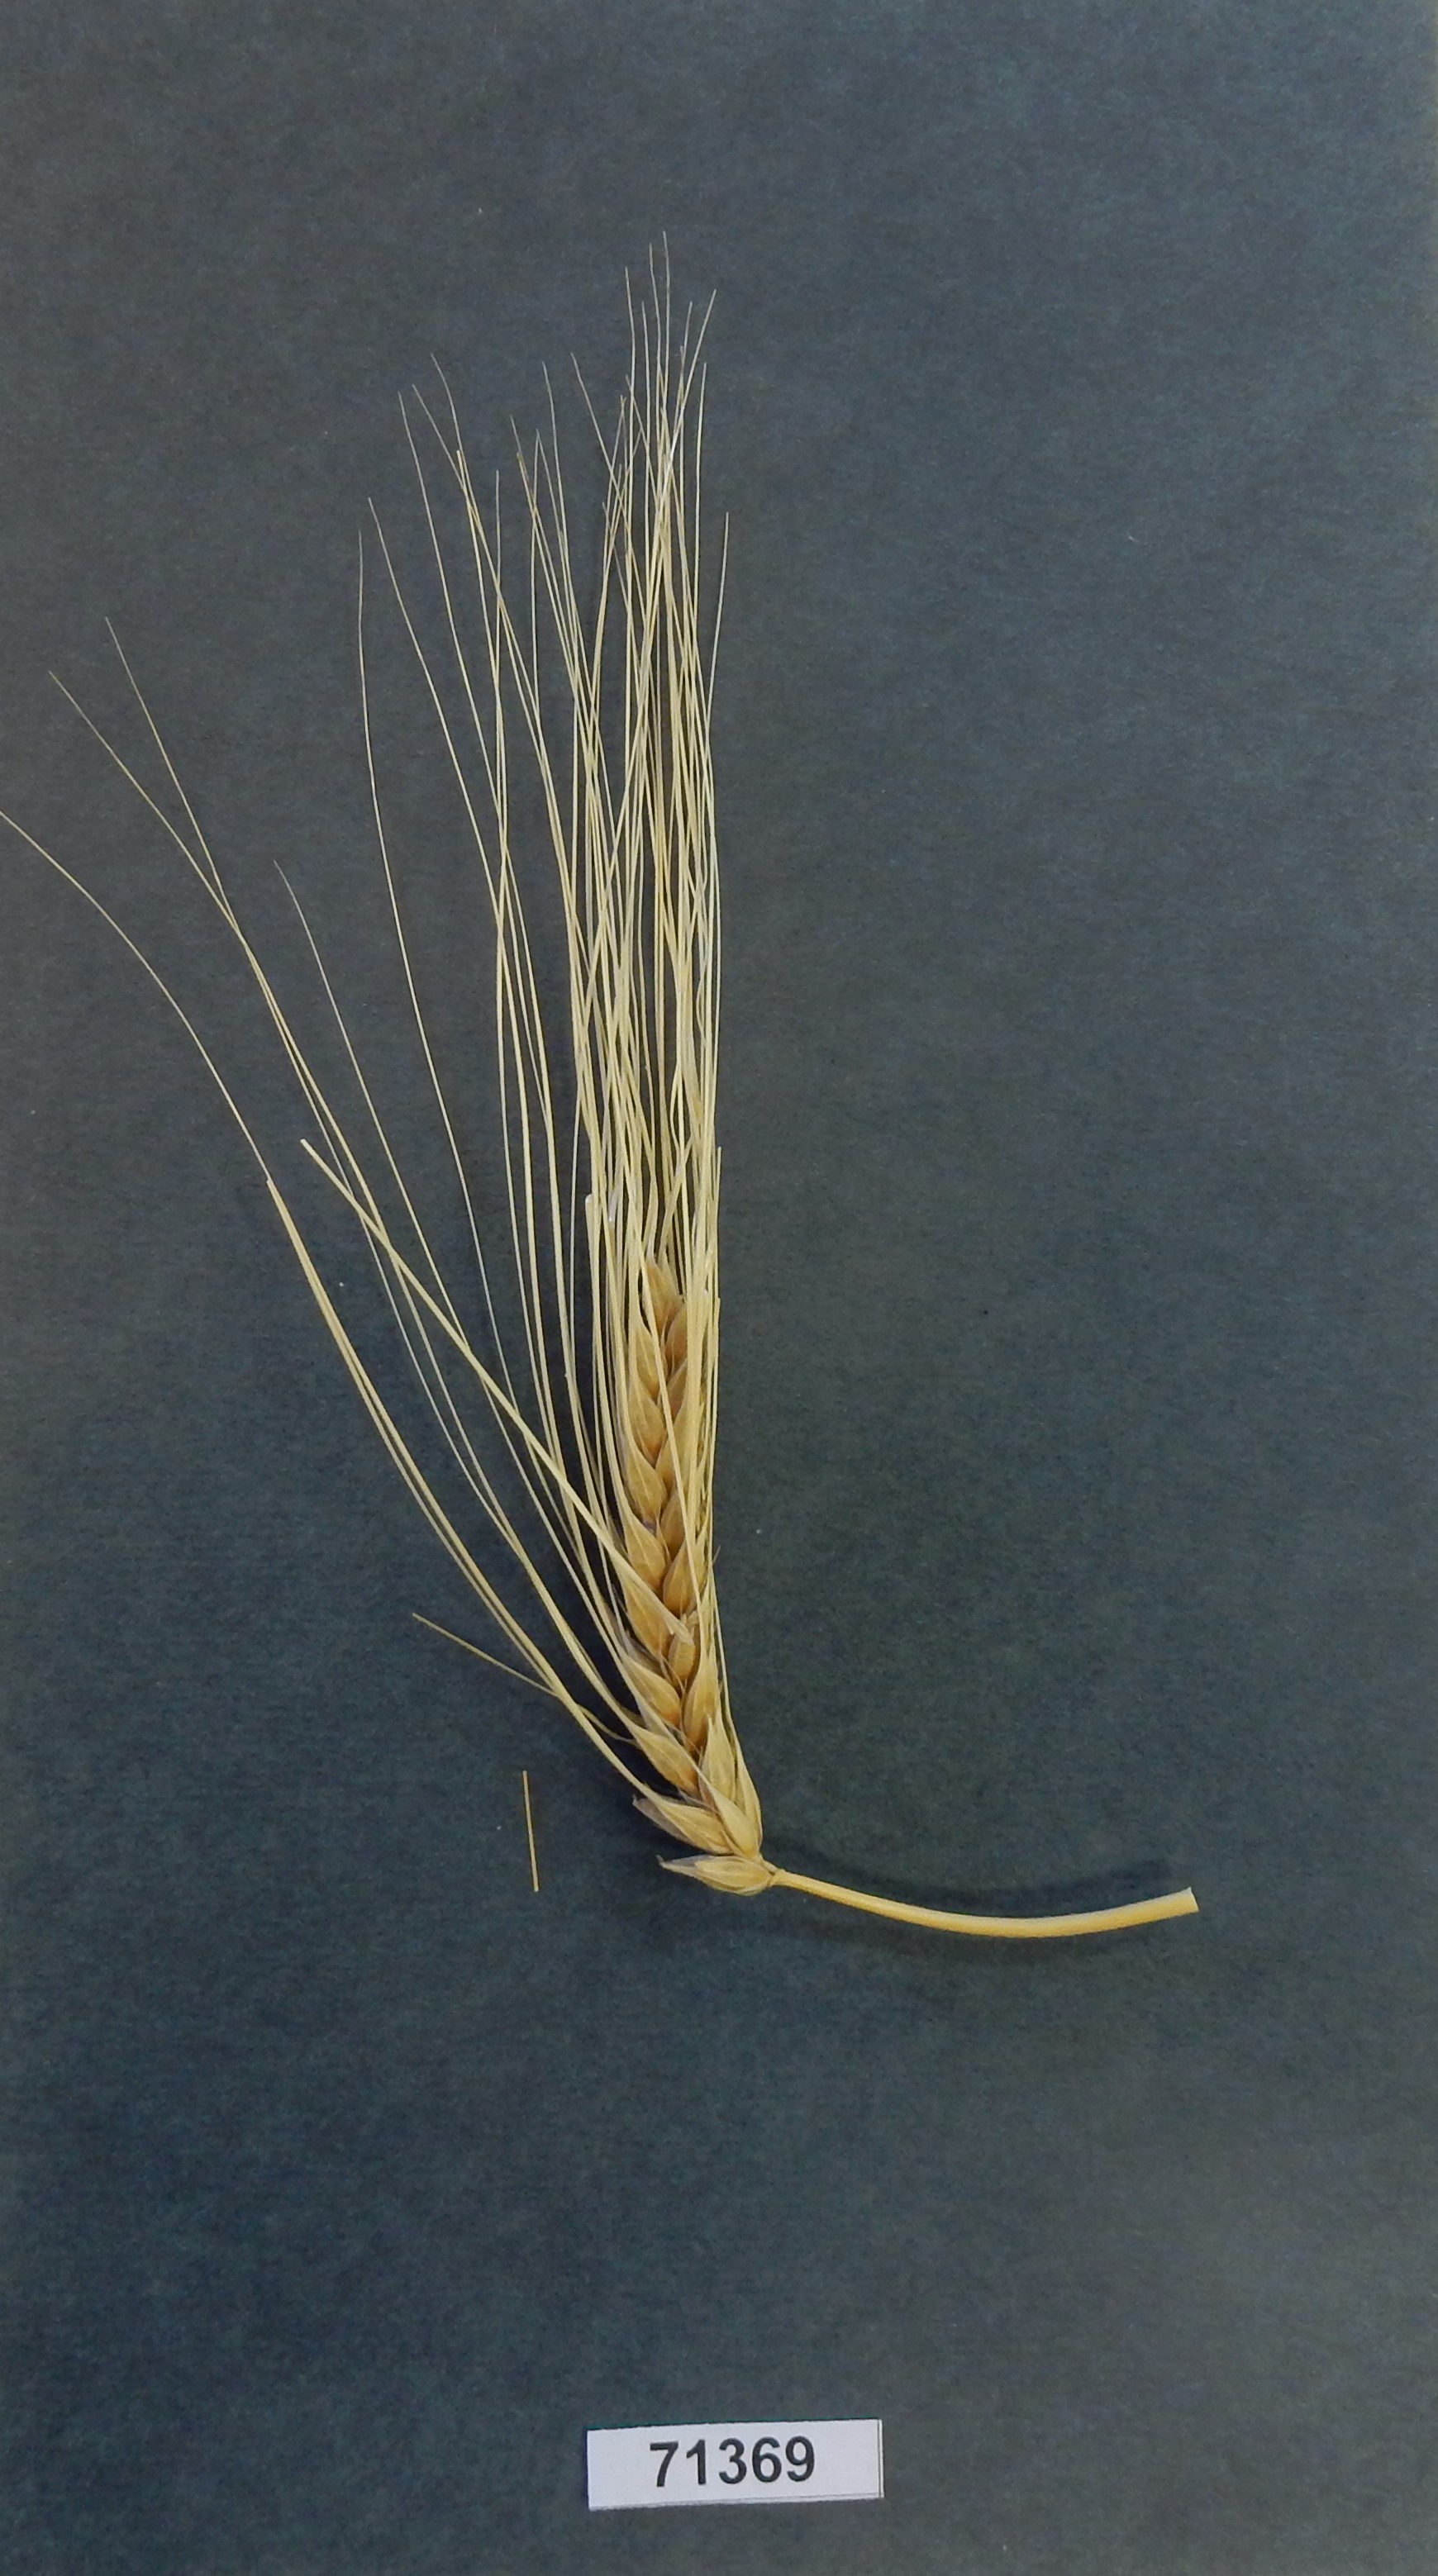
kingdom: Plantae
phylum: Tracheophyta
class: Liliopsida
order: Poales
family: Poaceae
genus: Hordeum
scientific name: Hordeum vulgare
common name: Barley
